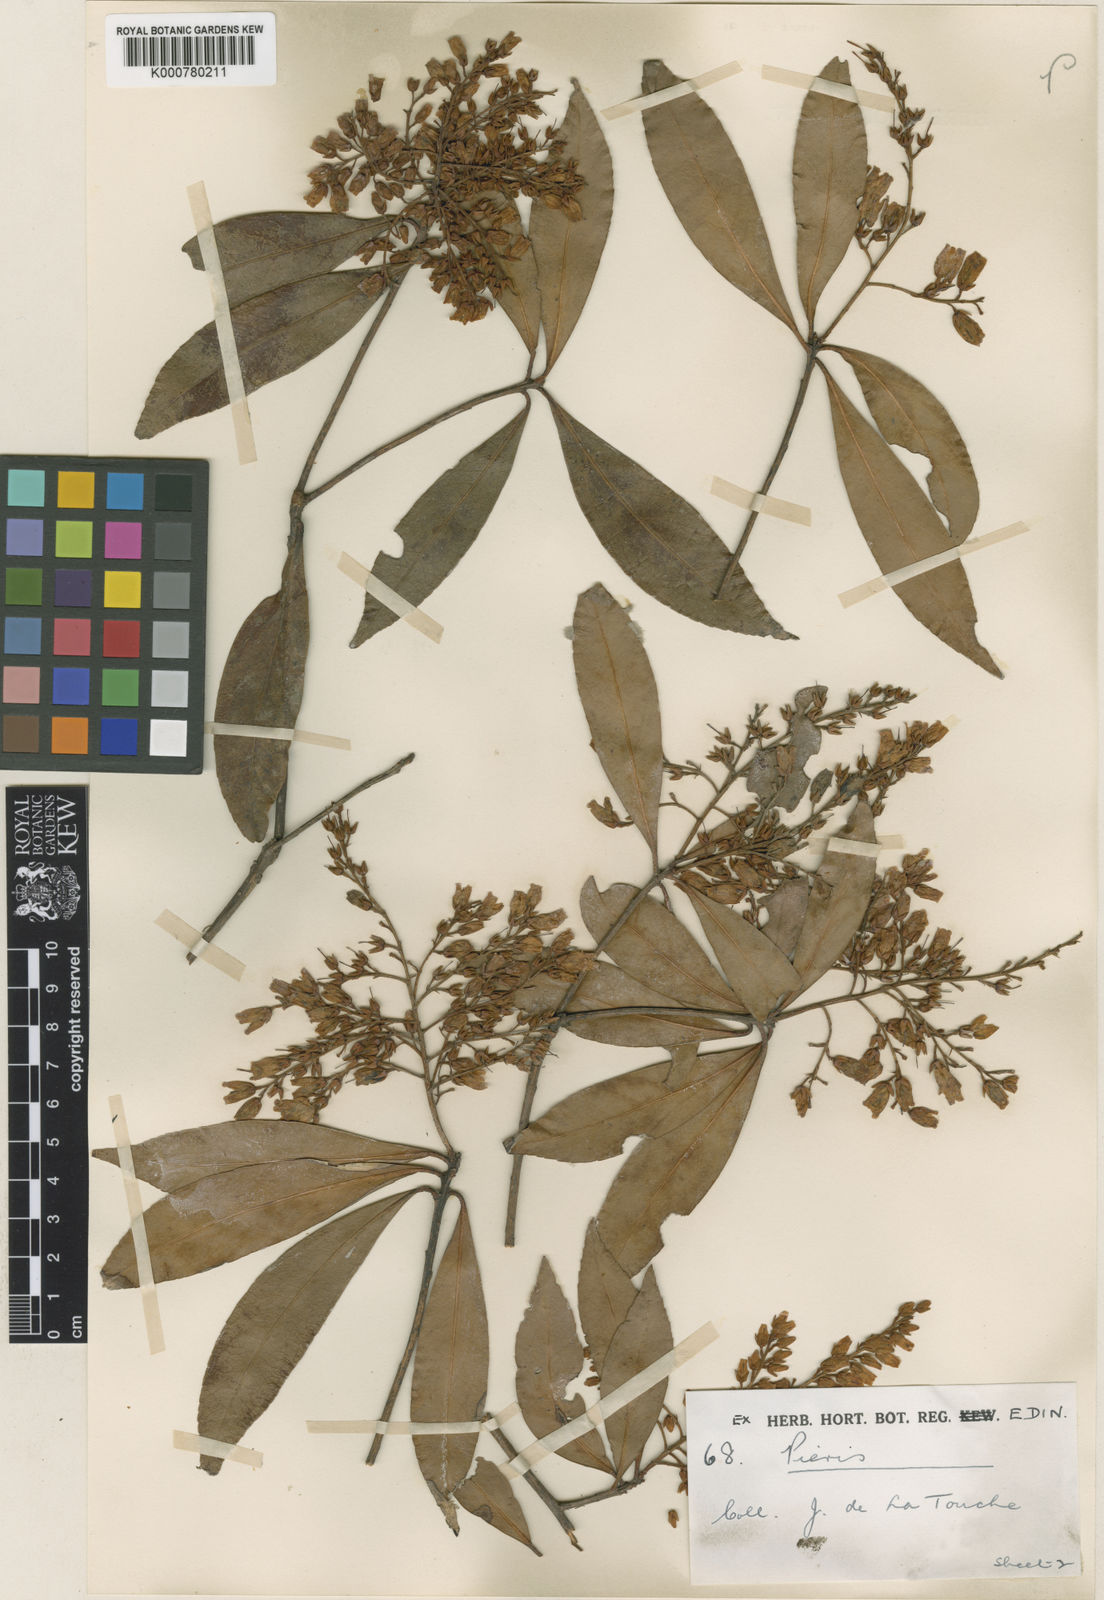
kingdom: Plantae
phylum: Tracheophyta
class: Magnoliopsida
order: Ericales
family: Ericaceae
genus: Pieris
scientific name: Pieris japonica
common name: Japanese pieris
